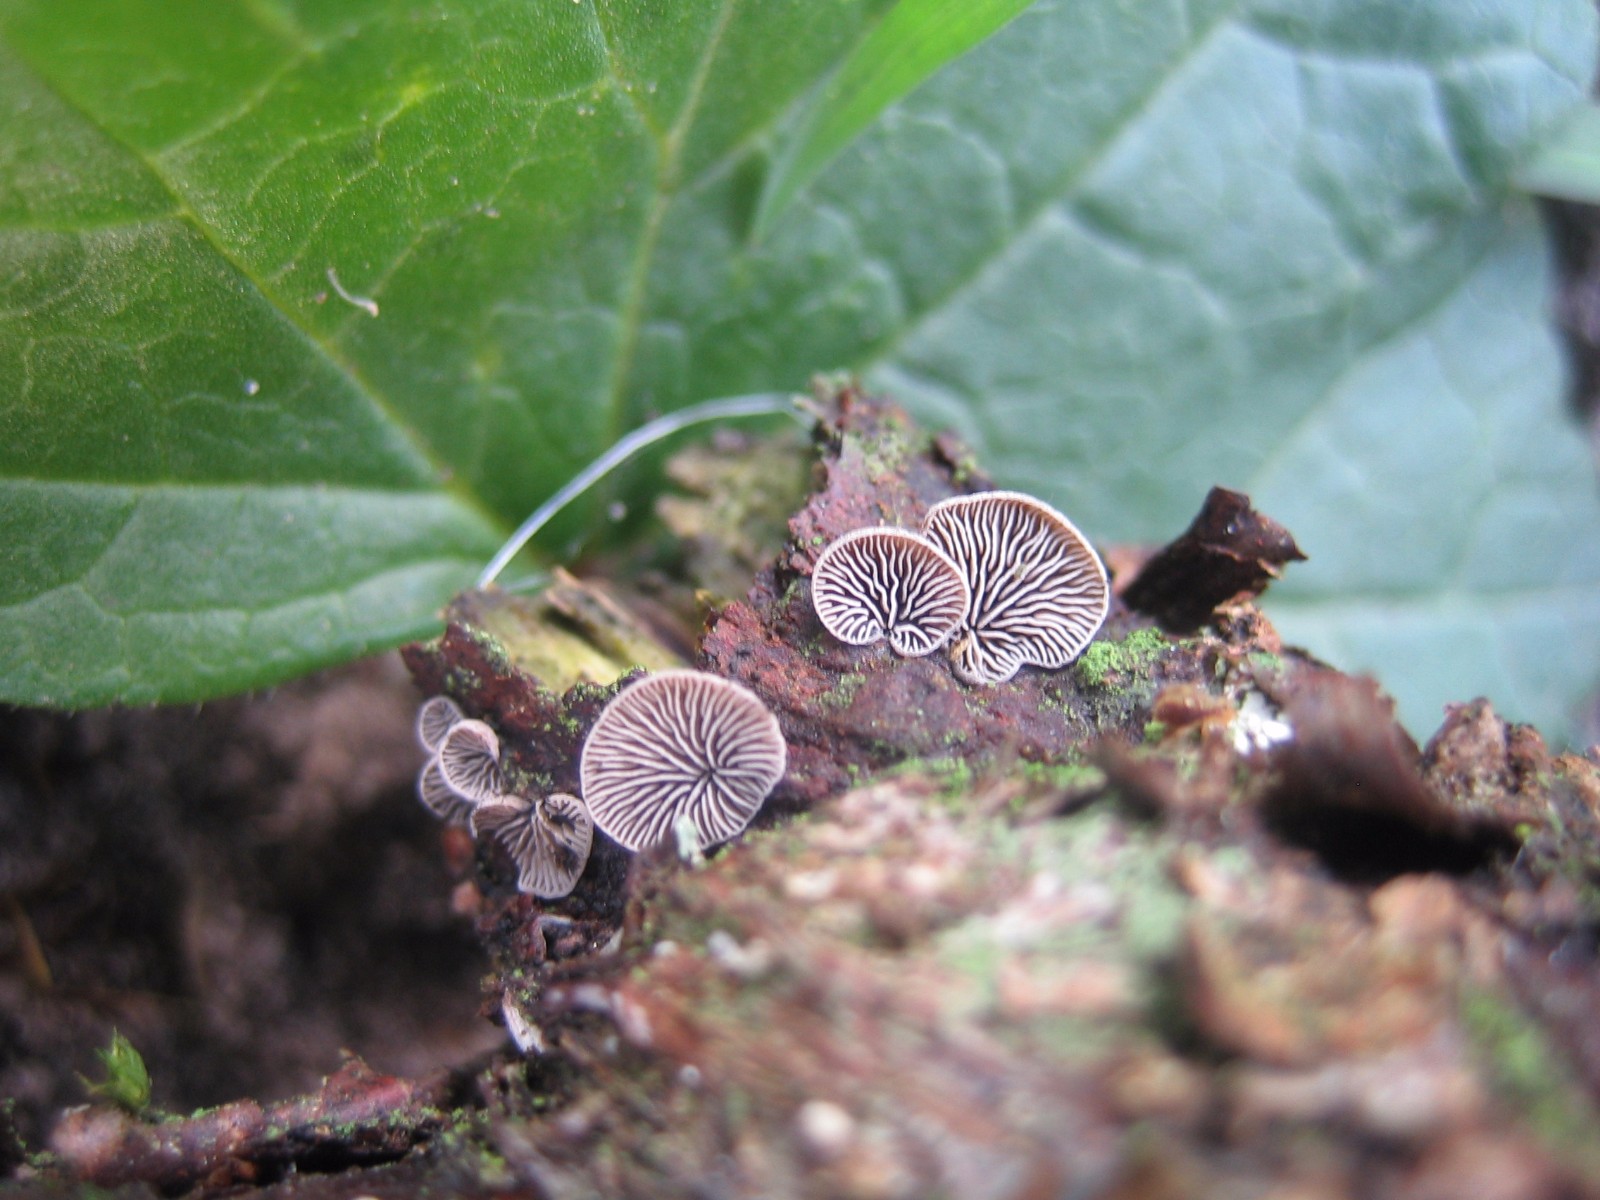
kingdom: Fungi
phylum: Basidiomycota
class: Agaricomycetes
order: Agaricales
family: Pleurotaceae
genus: Resupinatus
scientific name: Resupinatus applicatus
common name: lysfiltet barkhat
